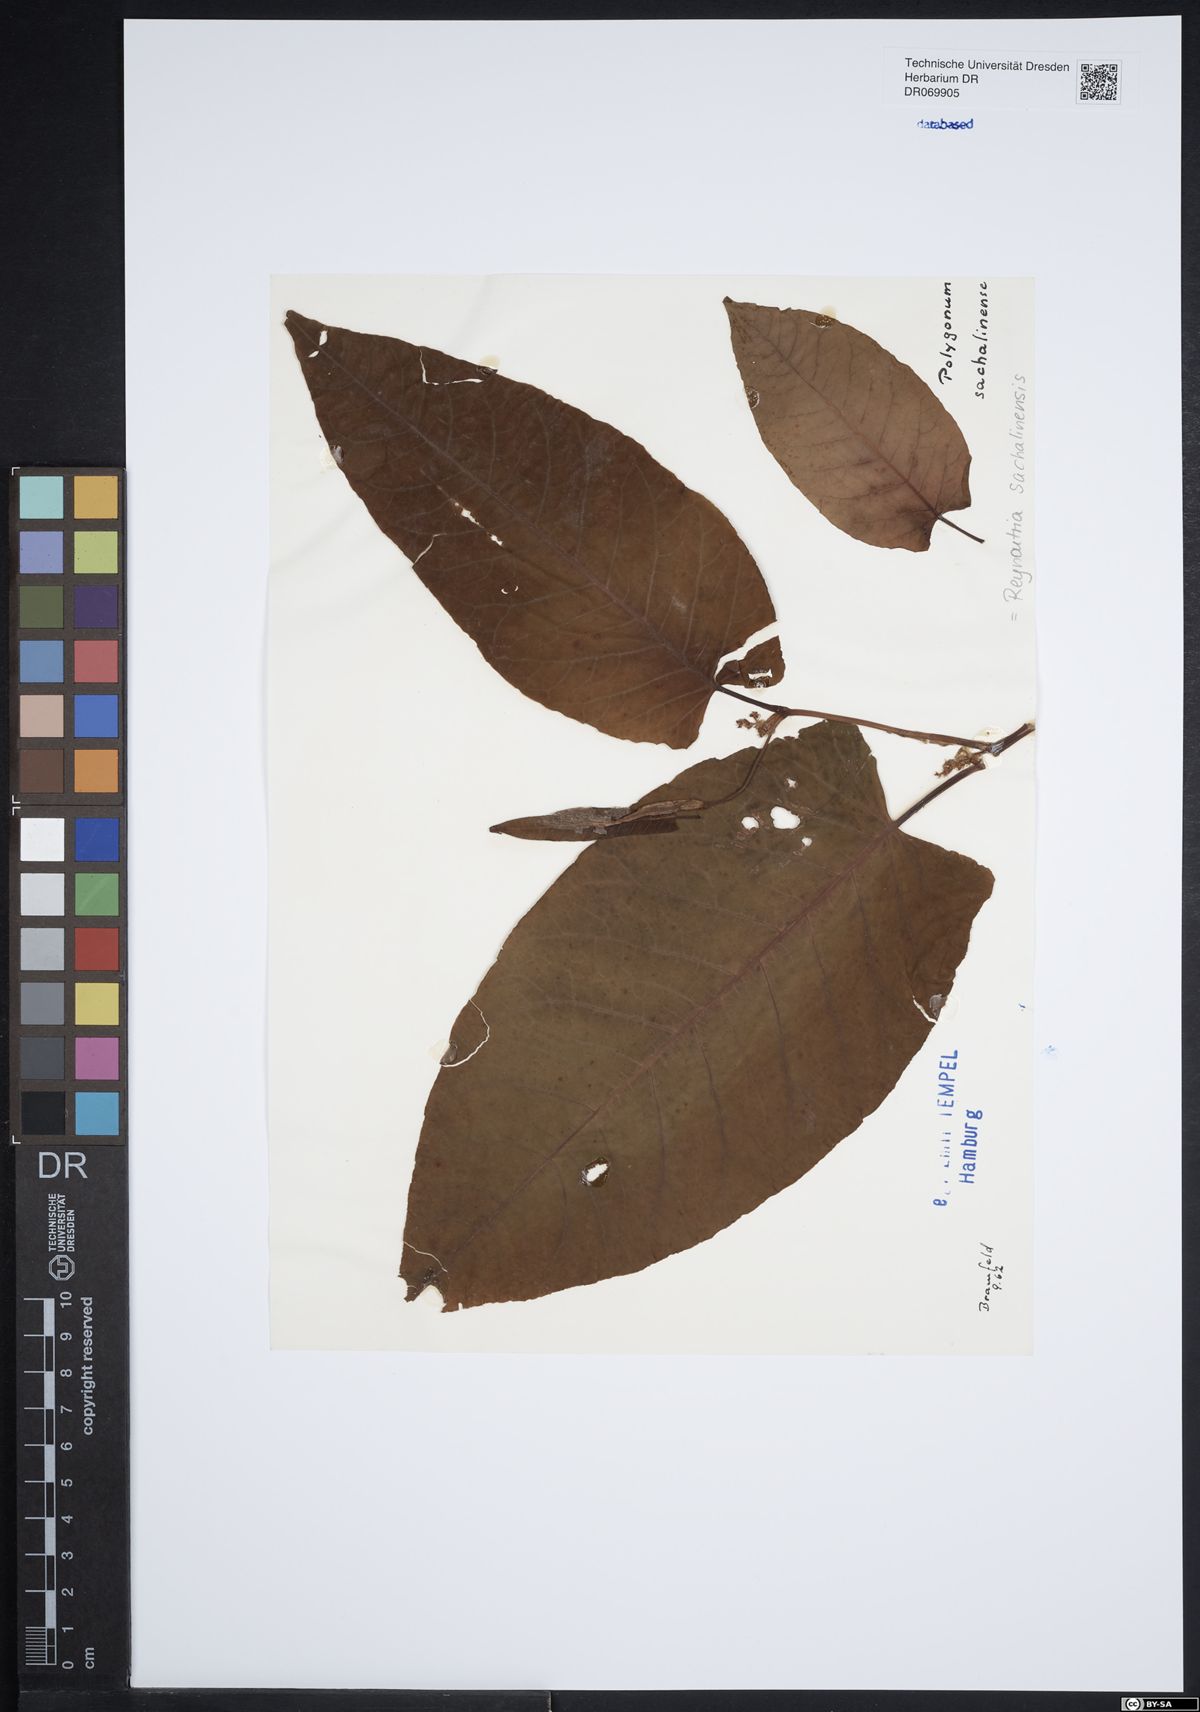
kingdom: Plantae
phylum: Tracheophyta
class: Magnoliopsida
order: Caryophyllales
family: Polygonaceae
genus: Reynoutria
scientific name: Reynoutria sachalinensis
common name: Giant knotweed
